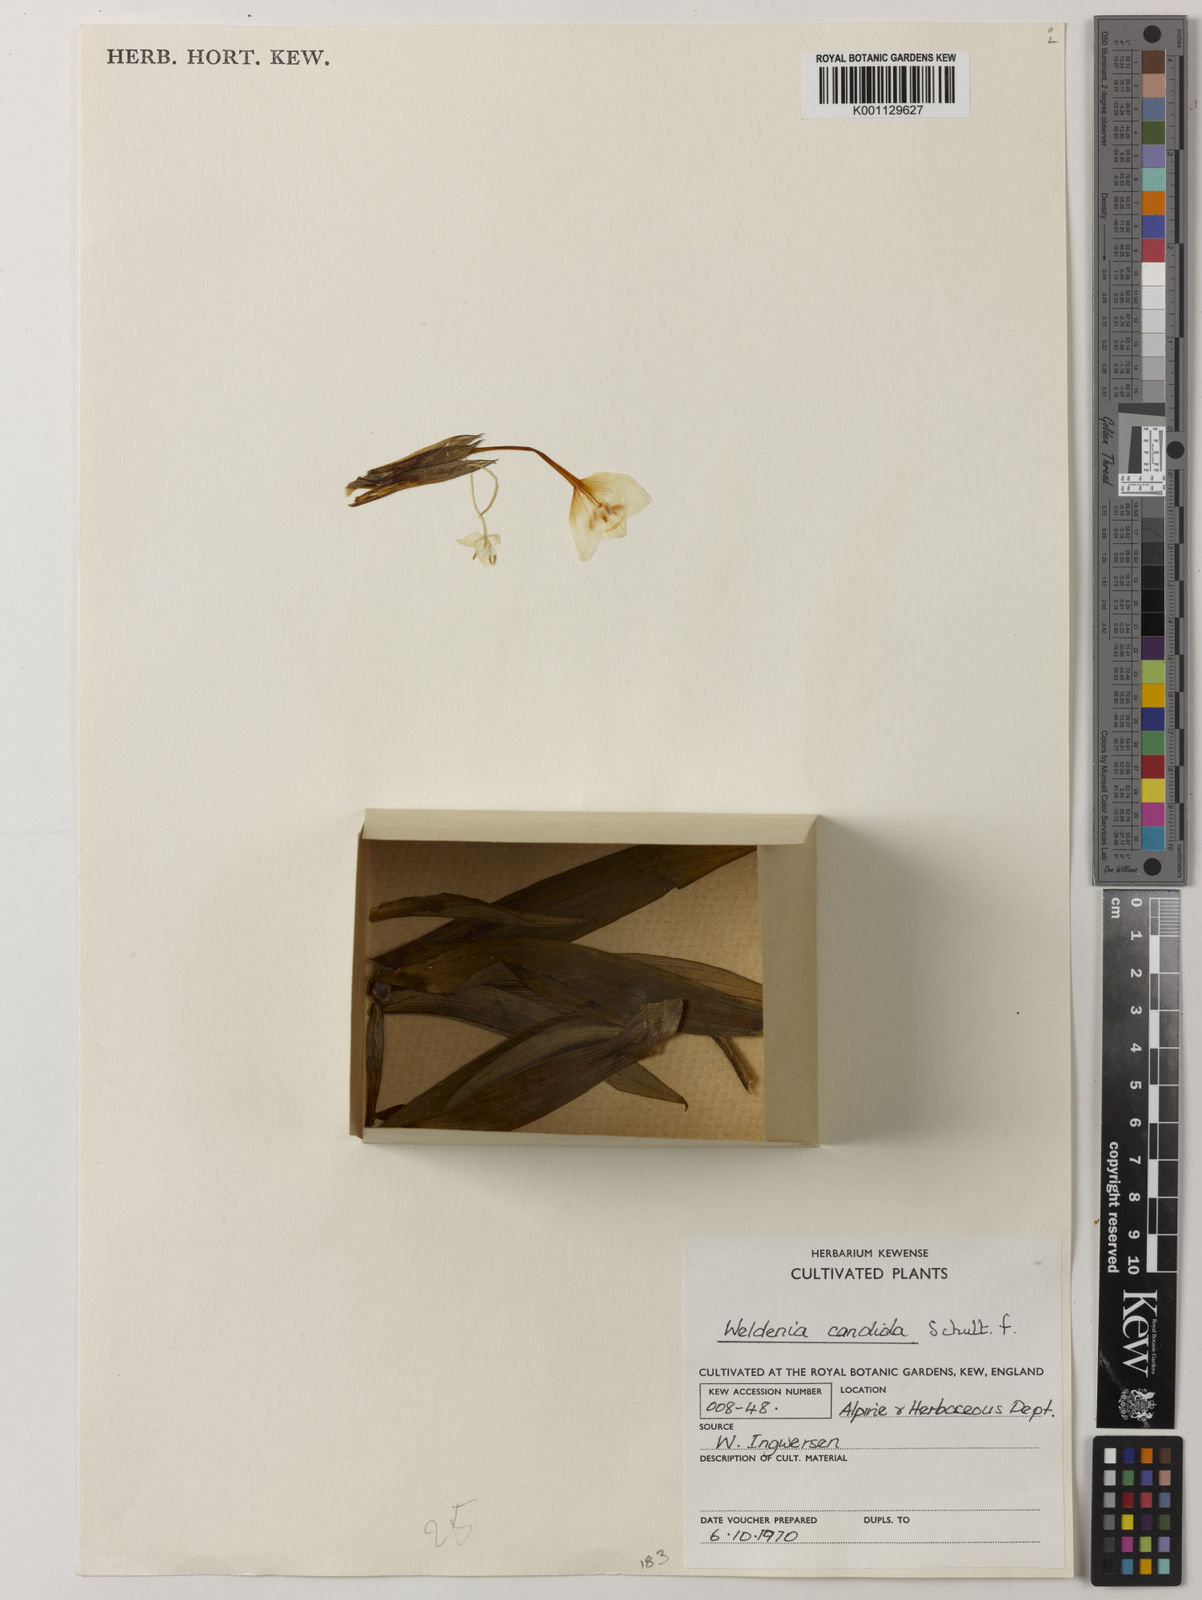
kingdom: Plantae
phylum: Tracheophyta
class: Liliopsida
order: Commelinales
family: Commelinaceae
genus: Weldenia
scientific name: Weldenia candida
